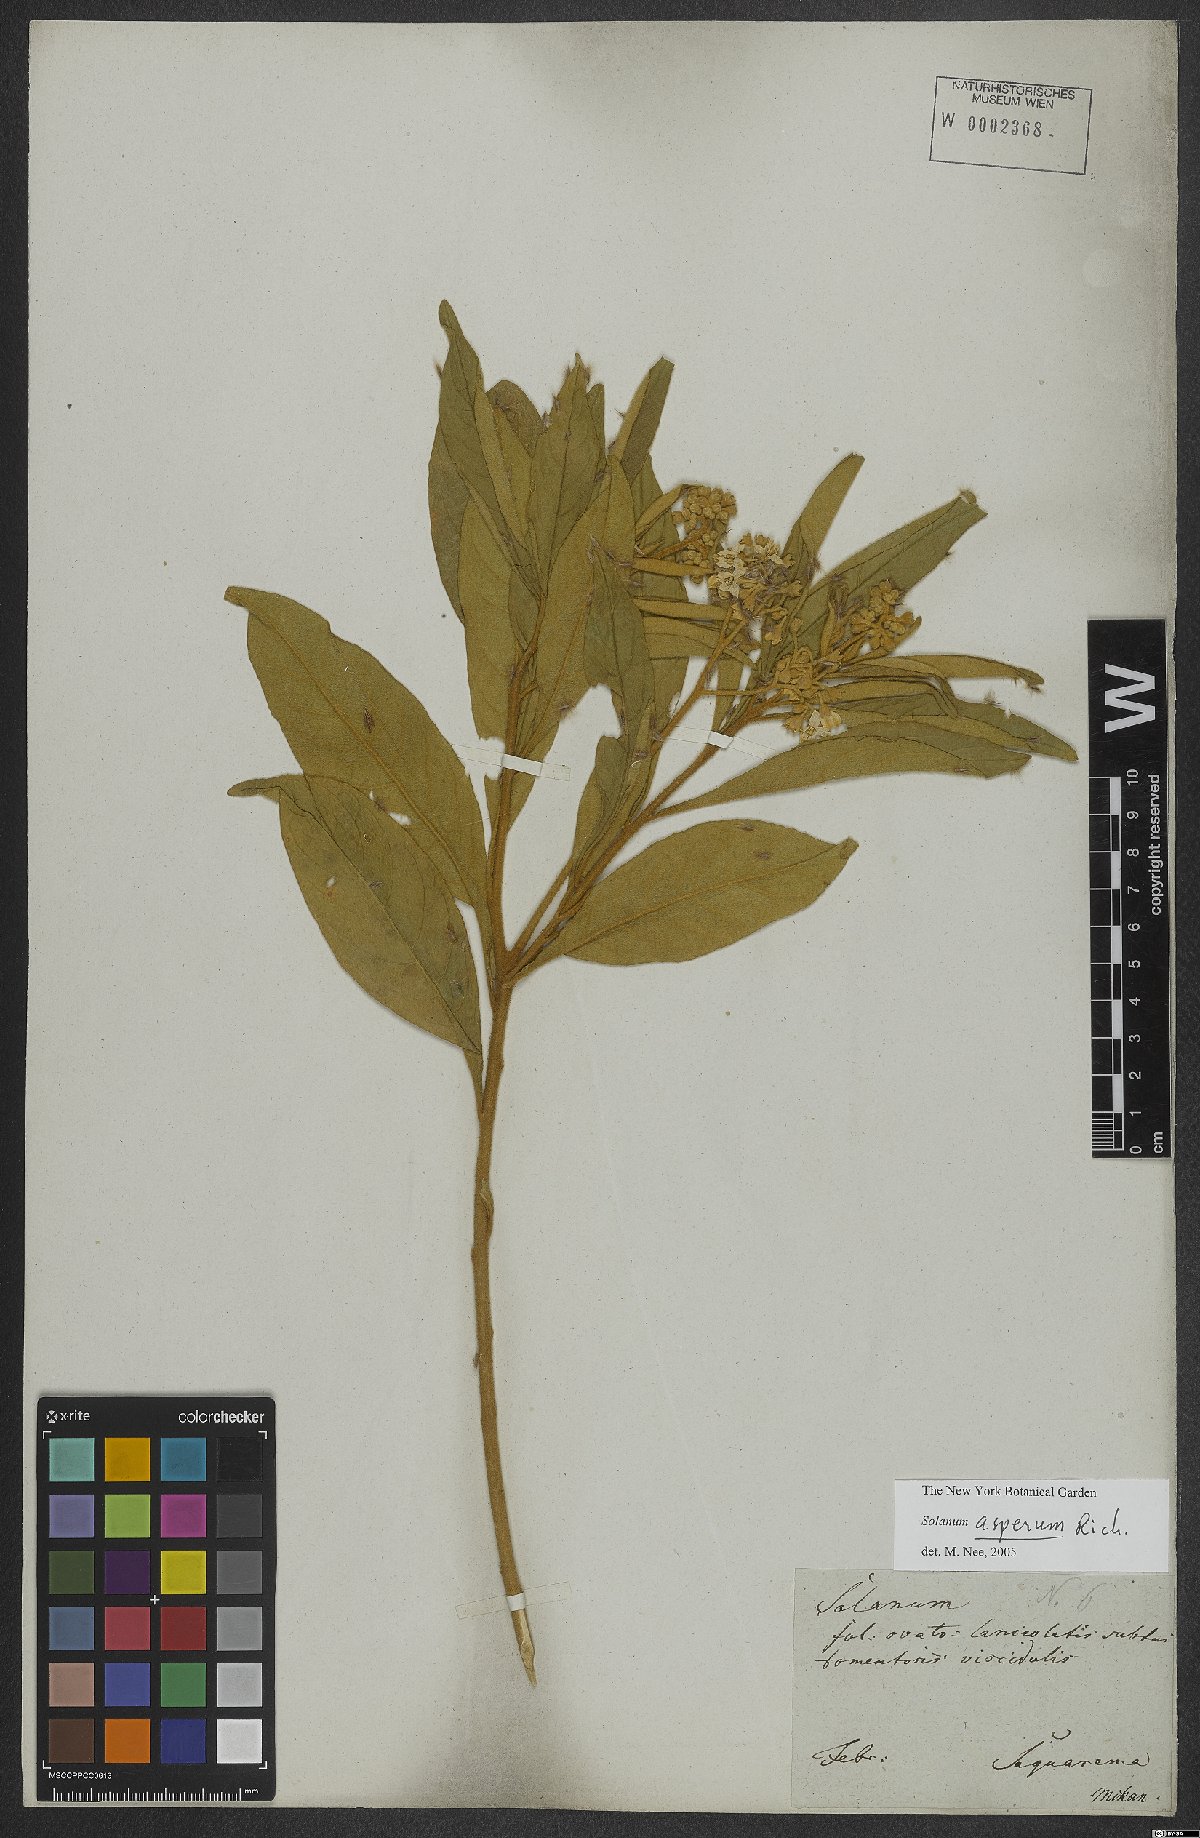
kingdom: Plantae
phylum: Tracheophyta
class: Magnoliopsida
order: Solanales
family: Solanaceae
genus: Solanum
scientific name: Solanum asperum
